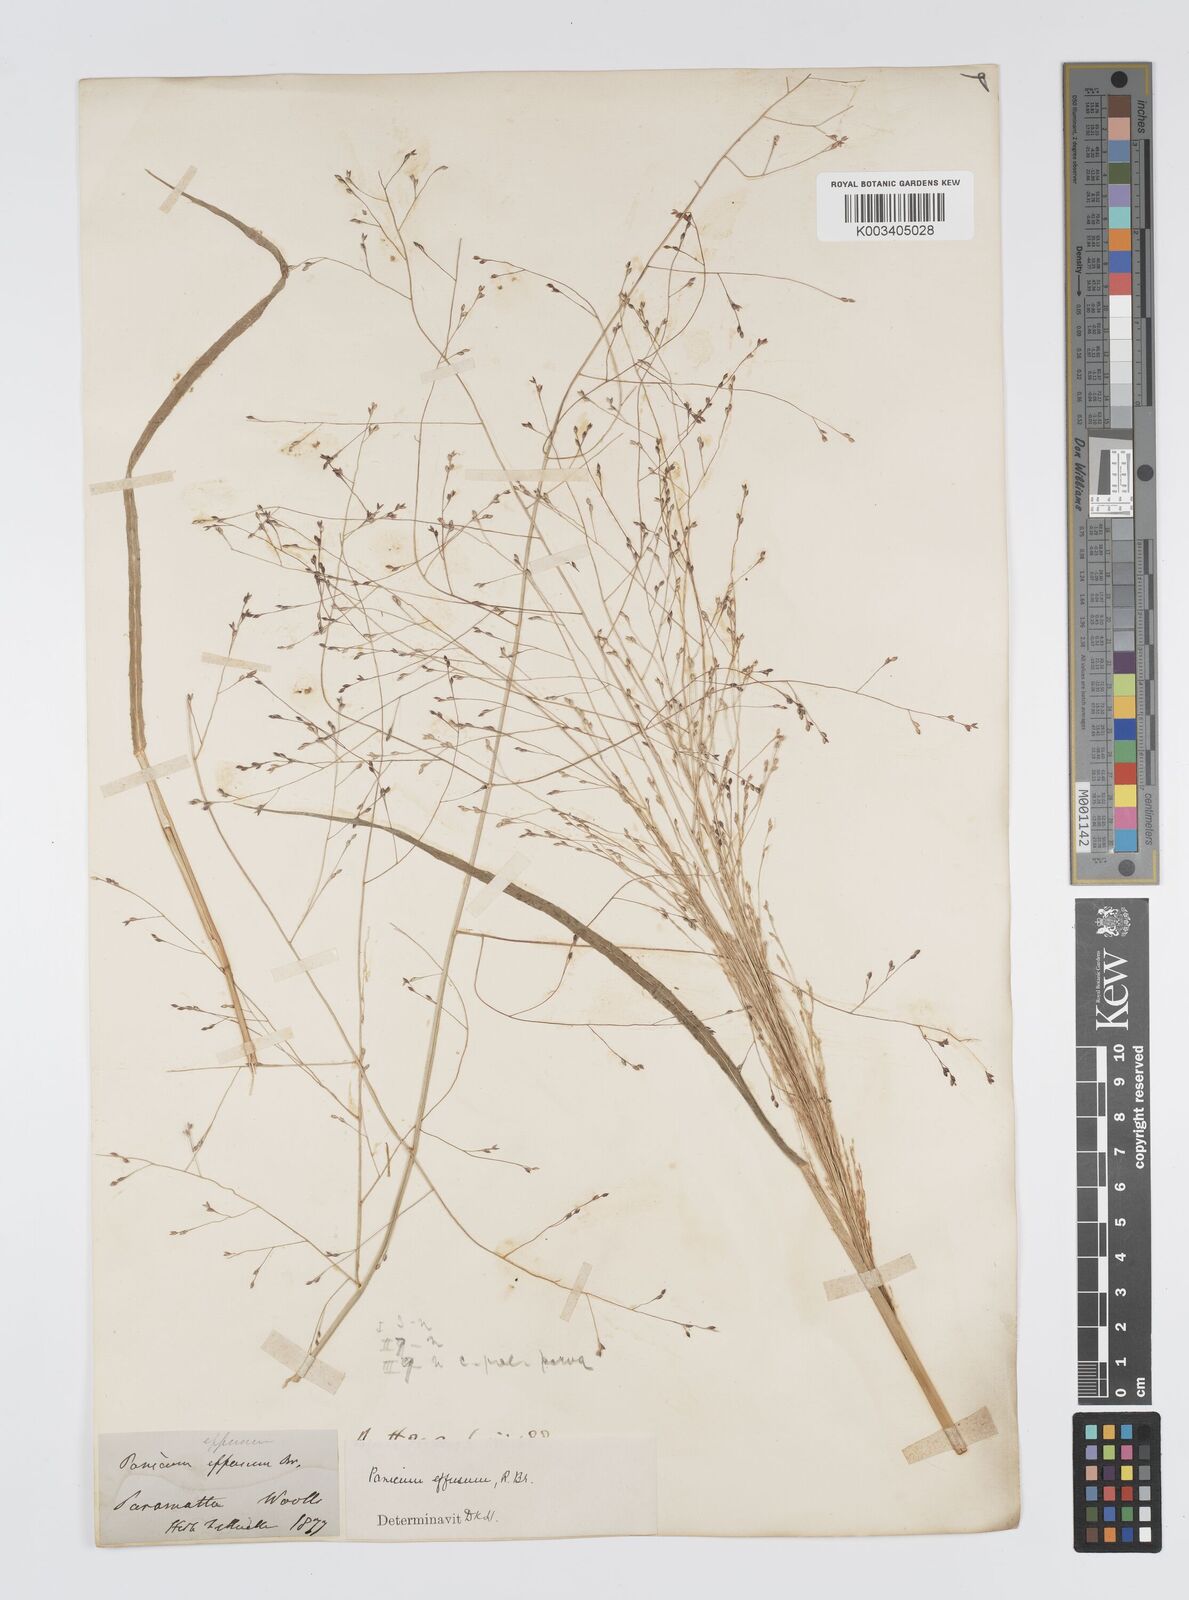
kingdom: Plantae
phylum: Tracheophyta
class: Liliopsida
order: Poales
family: Poaceae
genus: Panicum
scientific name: Panicum effusum
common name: Hairy panic grass
